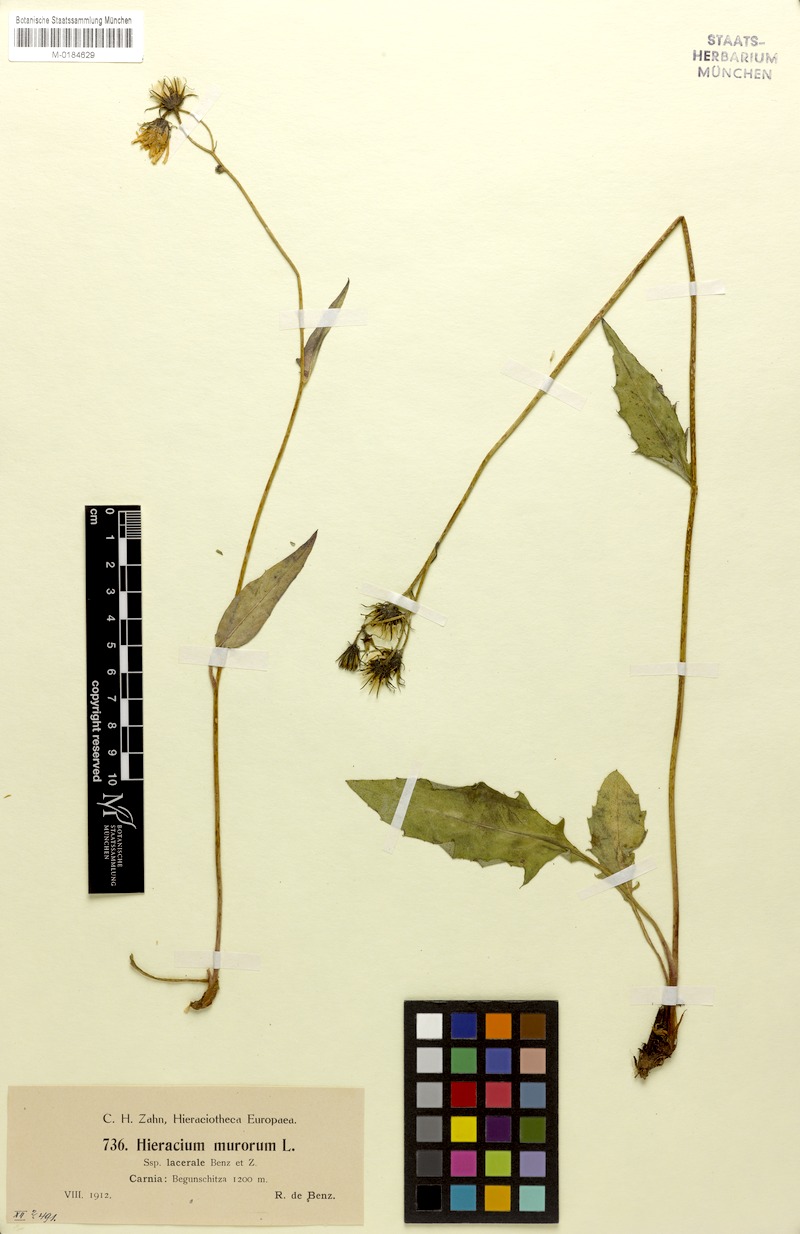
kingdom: Plantae
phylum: Tracheophyta
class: Magnoliopsida
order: Asterales
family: Asteraceae
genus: Hieracium
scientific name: Hieracium diaphanoides
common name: Fine-bracted hawkweed
